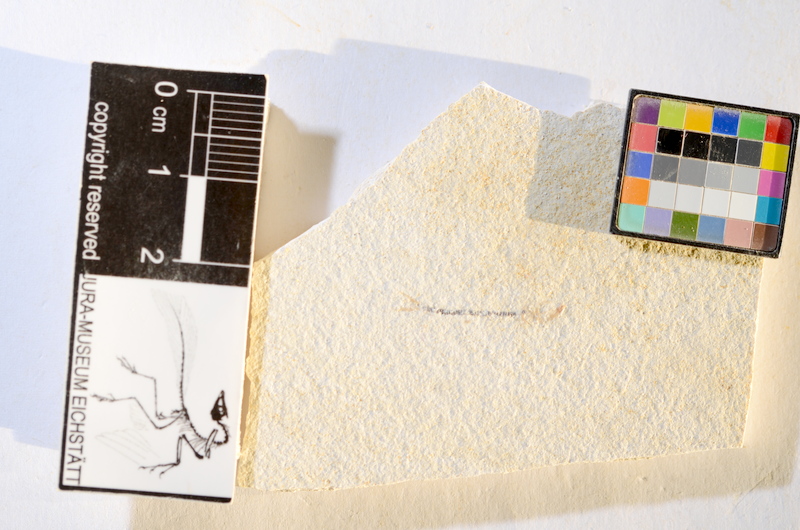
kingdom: Animalia
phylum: Chordata
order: Salmoniformes
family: Orthogonikleithridae
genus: Orthogonikleithrus
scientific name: Orthogonikleithrus hoelli
